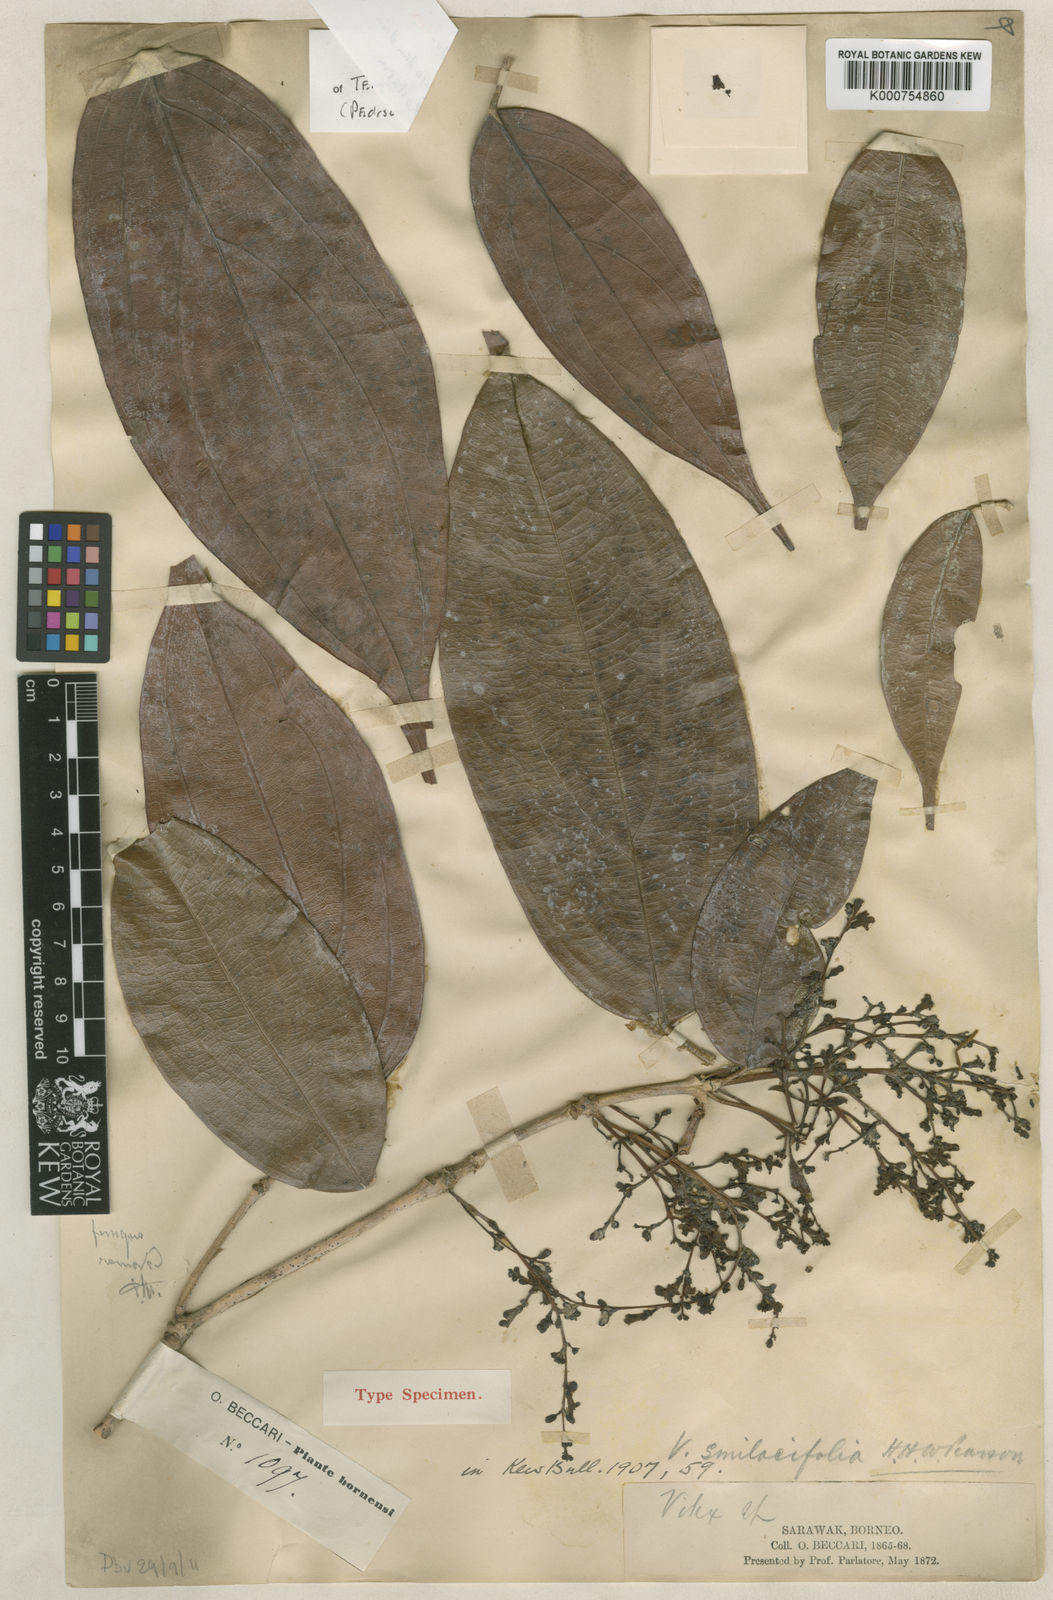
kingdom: Plantae
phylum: Tracheophyta
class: Magnoliopsida
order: Lamiales
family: Lamiaceae
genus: Teijsmanniodendron
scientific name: Teijsmanniodendron smilacifolium
